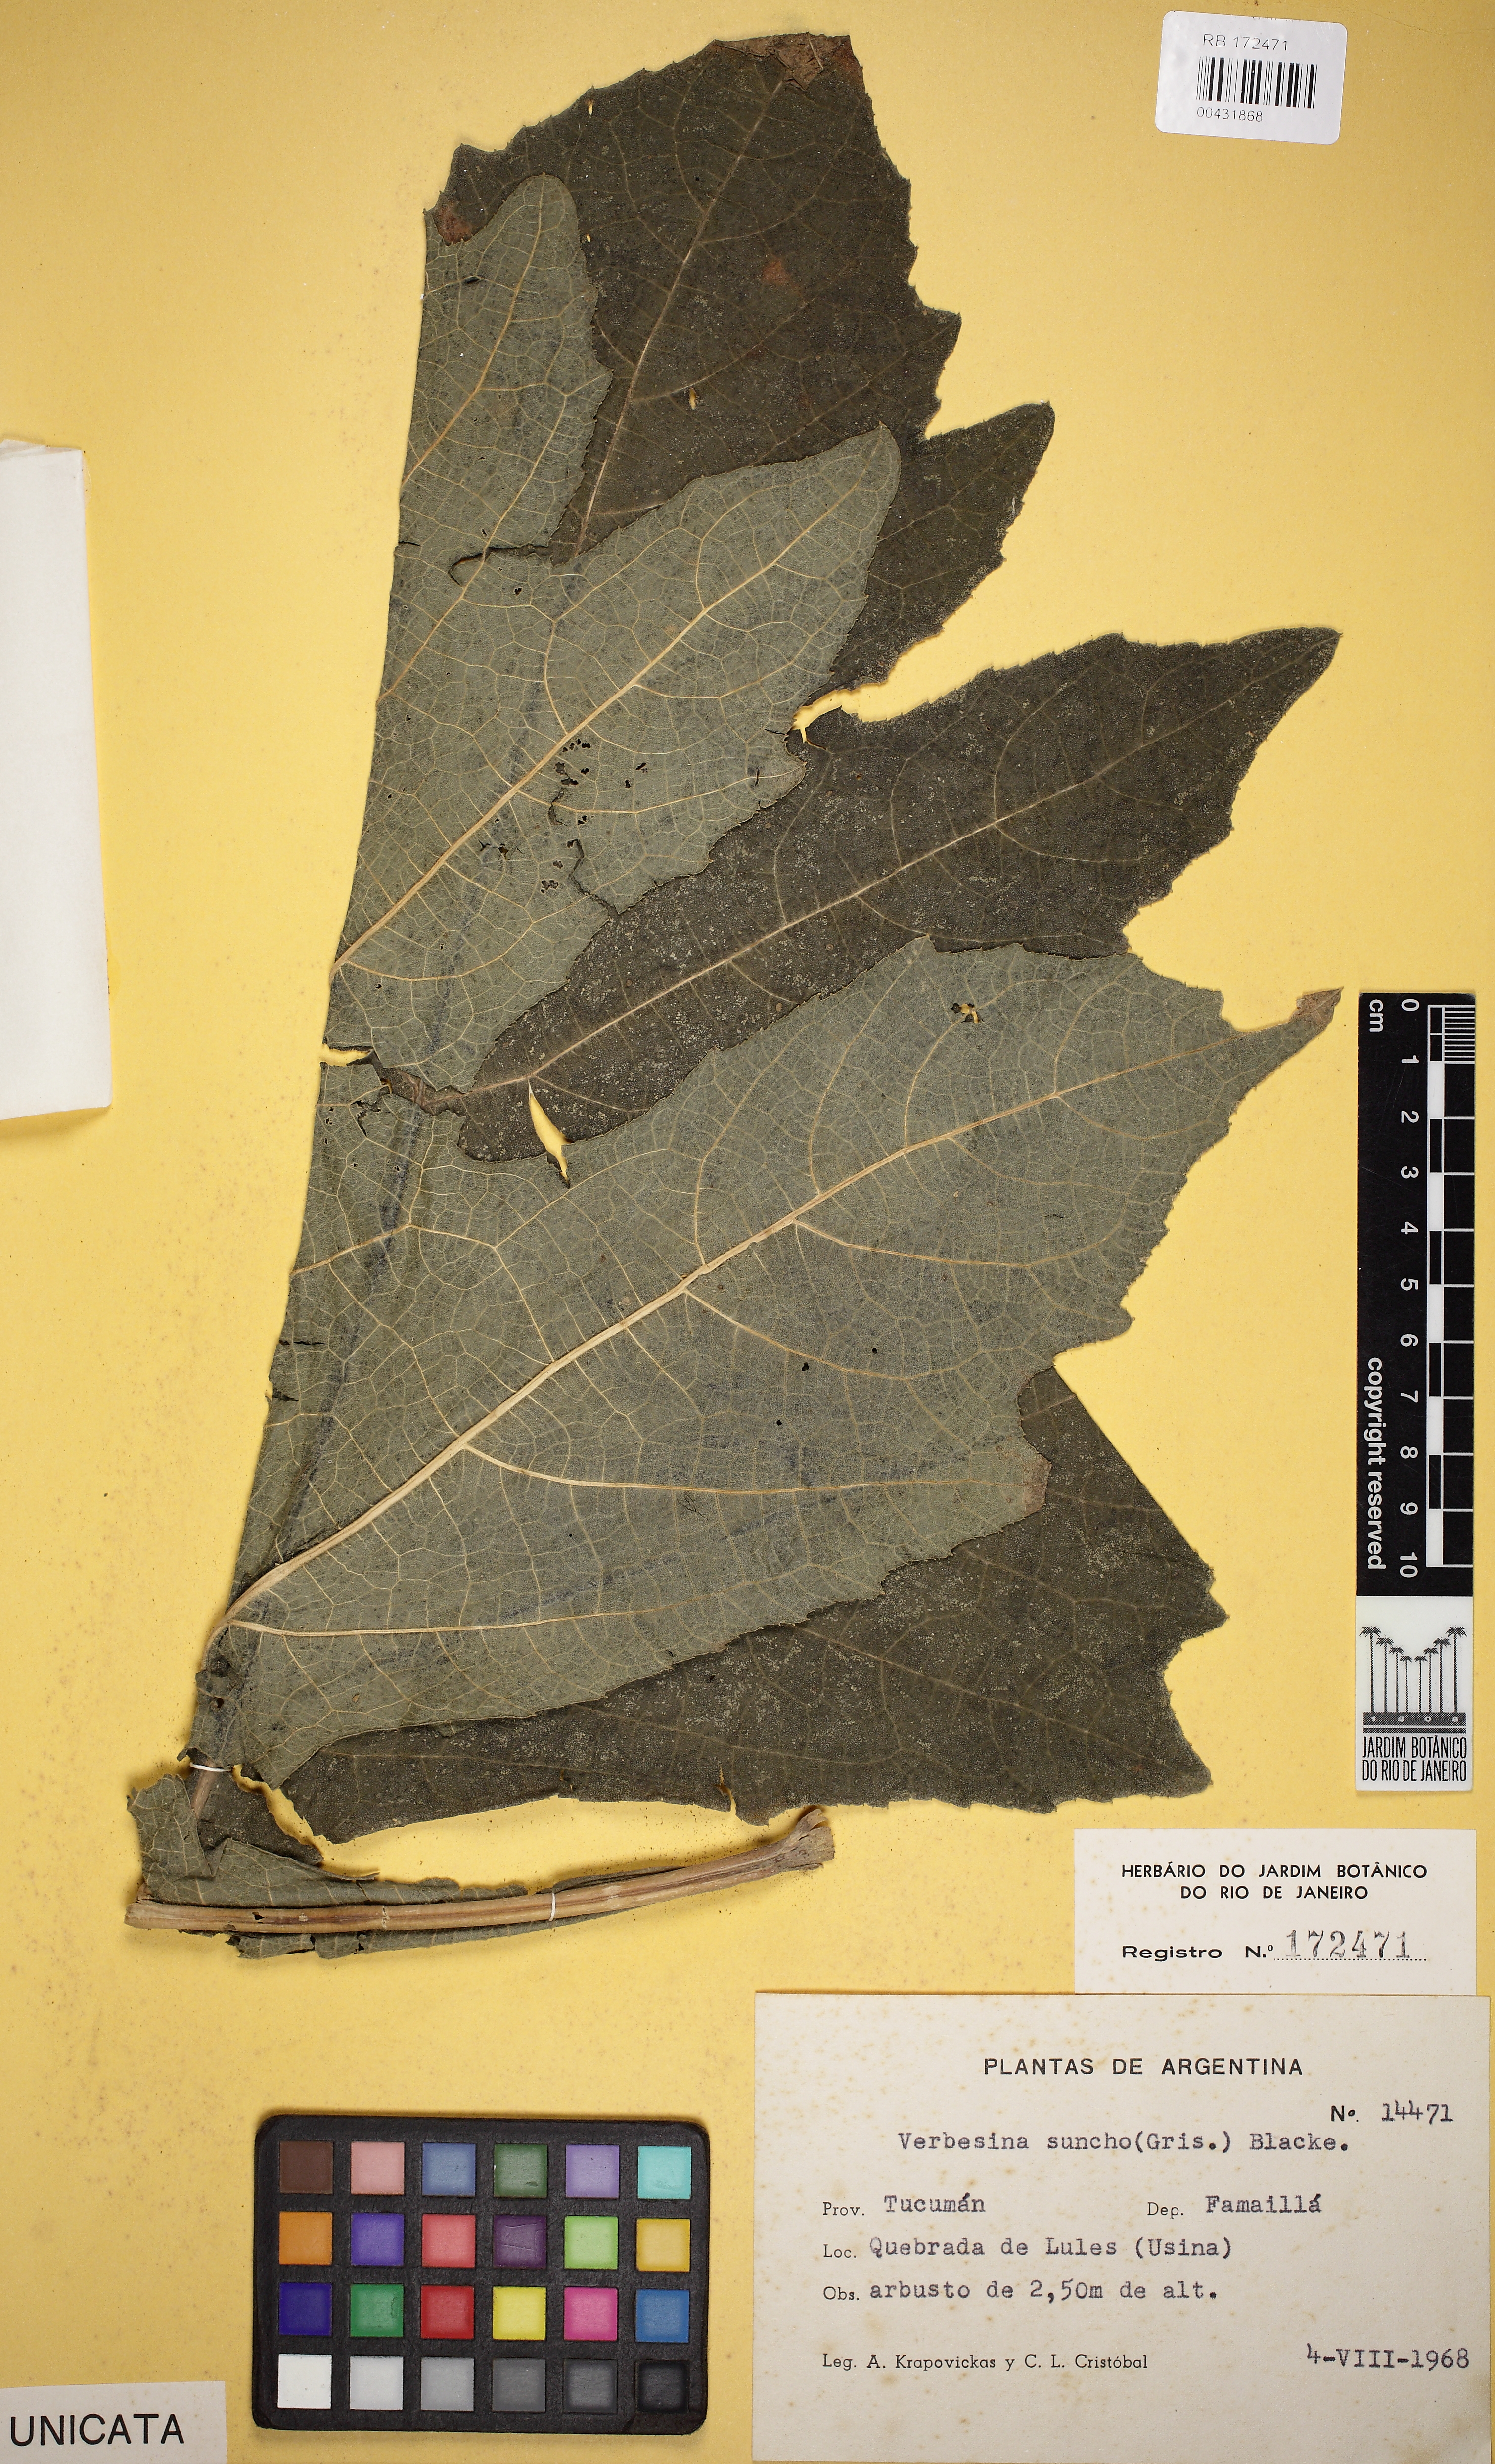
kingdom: Plantae
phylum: Tracheophyta
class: Magnoliopsida
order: Asterales
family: Asteraceae
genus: Verbesina
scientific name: Verbesina suncho
